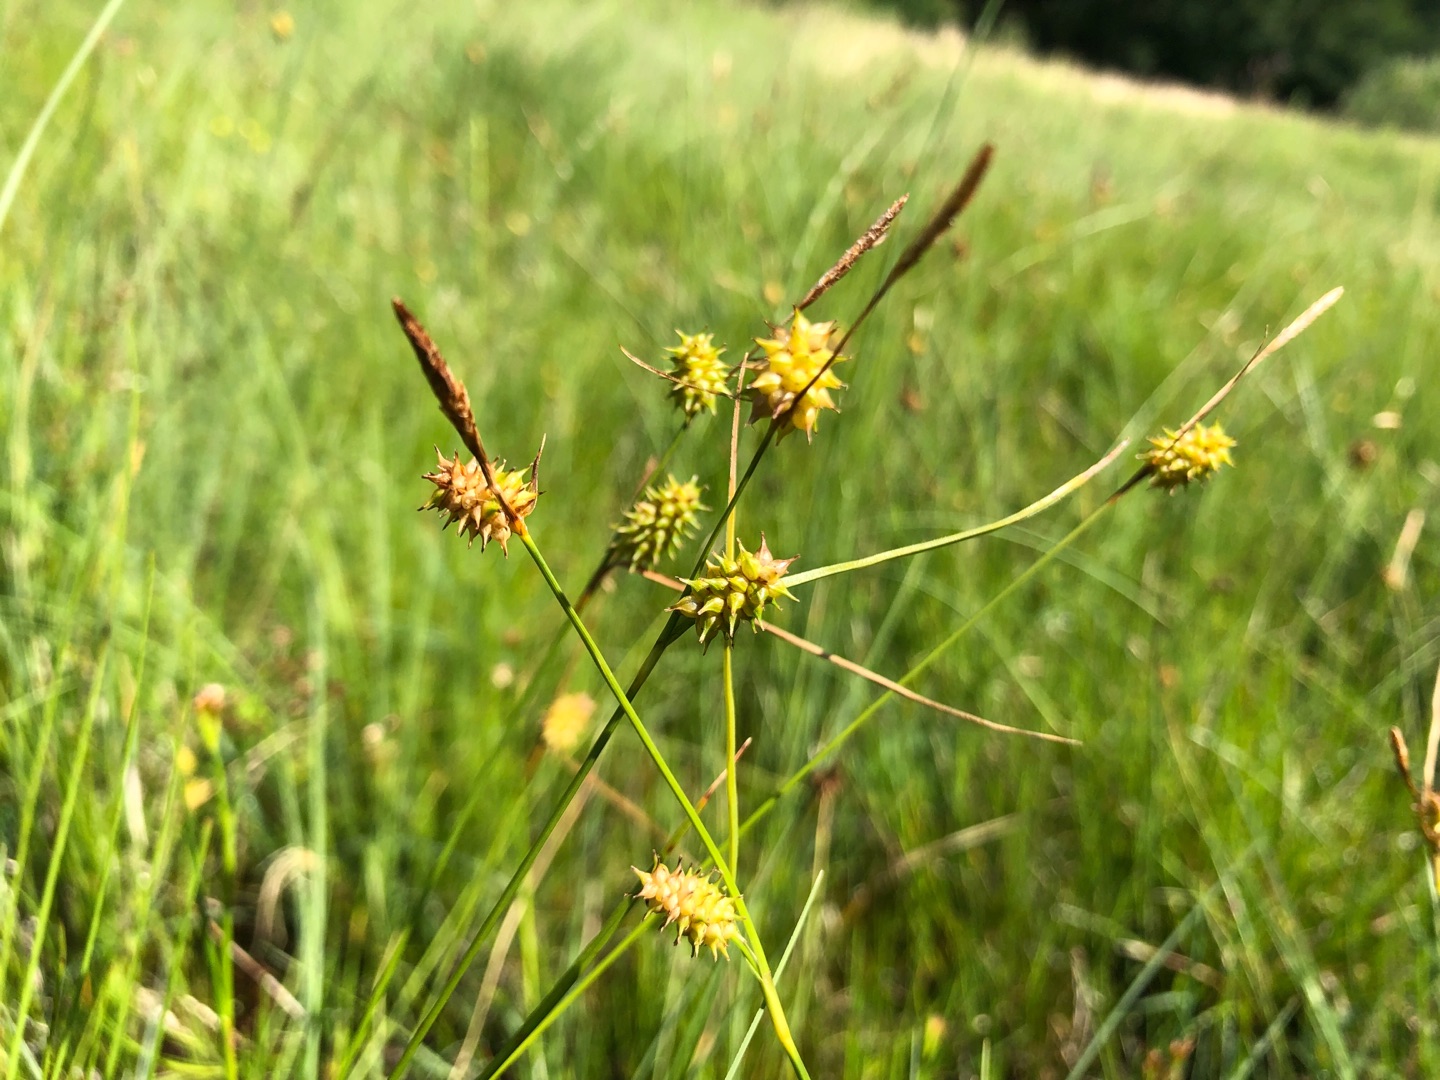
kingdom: Plantae
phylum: Tracheophyta
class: Liliopsida
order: Poales
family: Cyperaceae
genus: Carex
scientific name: Carex lepidocarpa
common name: Krognæb-star
